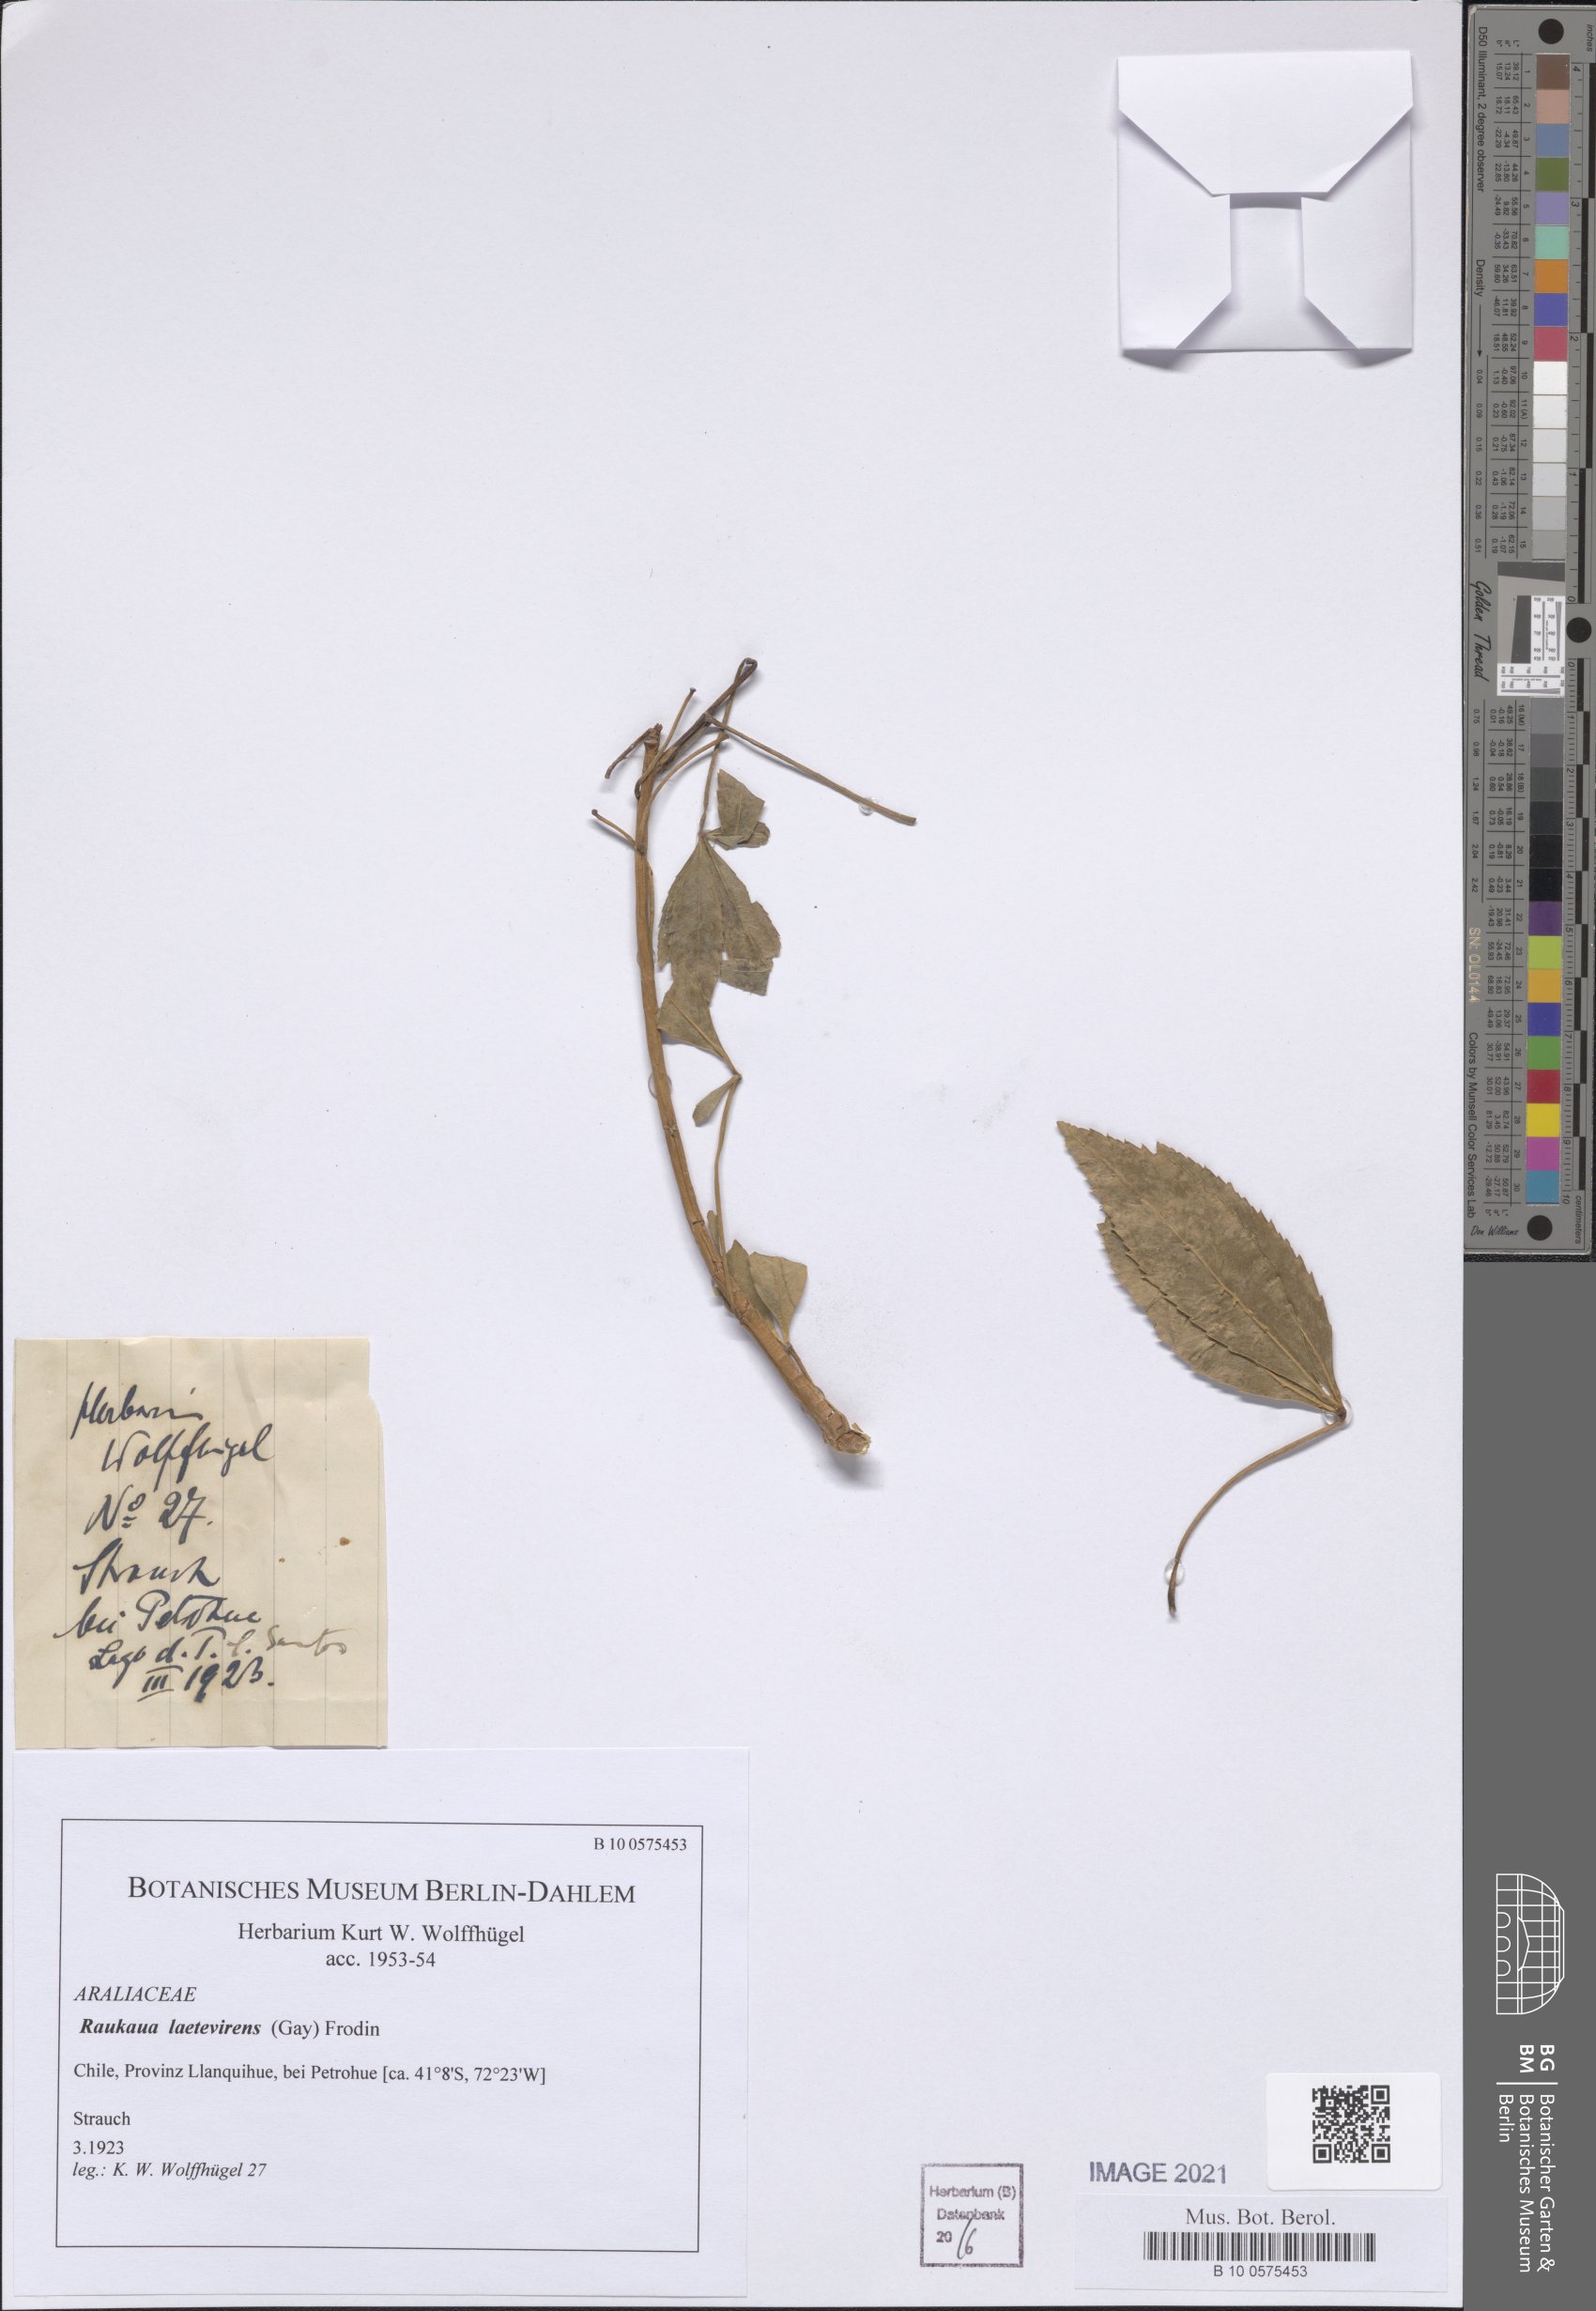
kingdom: Plantae
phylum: Tracheophyta
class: Magnoliopsida
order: Apiales
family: Araliaceae
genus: Raukaua
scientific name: Raukaua laetevirens
